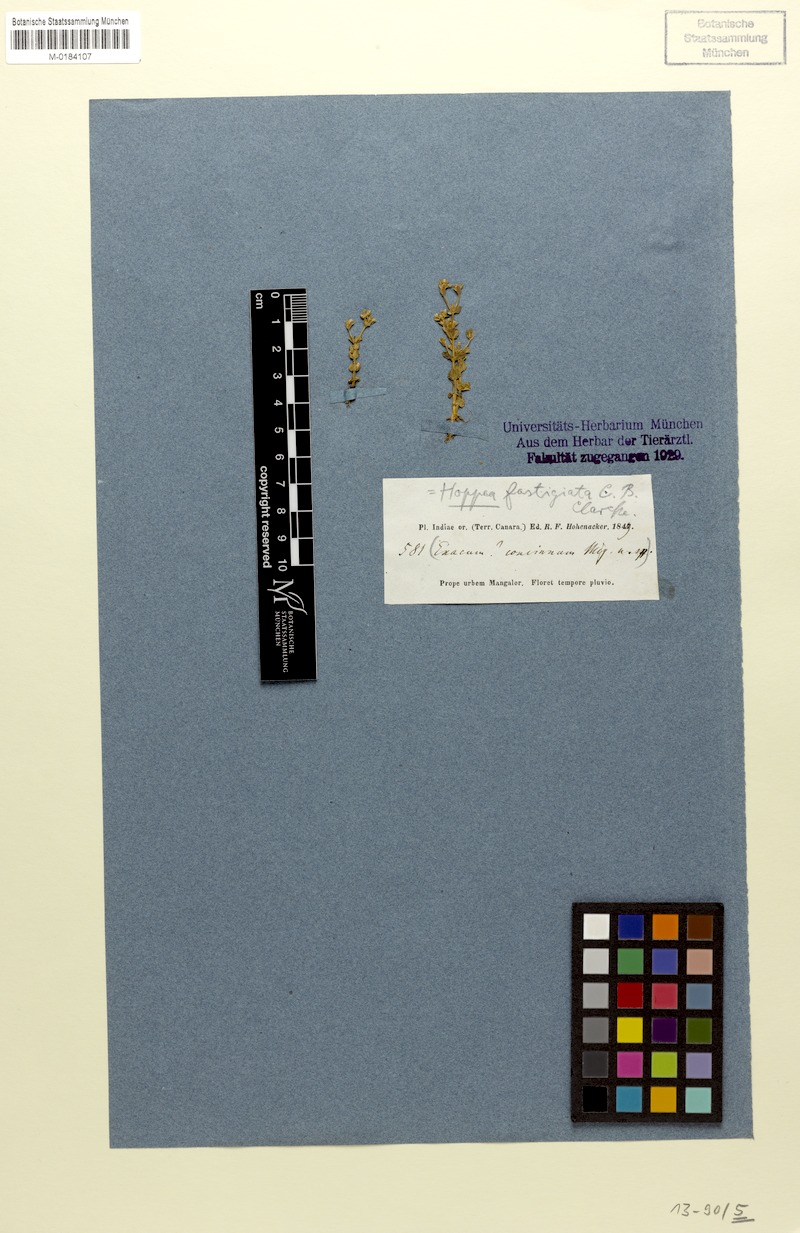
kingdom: Plantae
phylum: Tracheophyta
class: Magnoliopsida
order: Gentianales
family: Gentianaceae
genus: Hoppea
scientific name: Hoppea fastigiata
